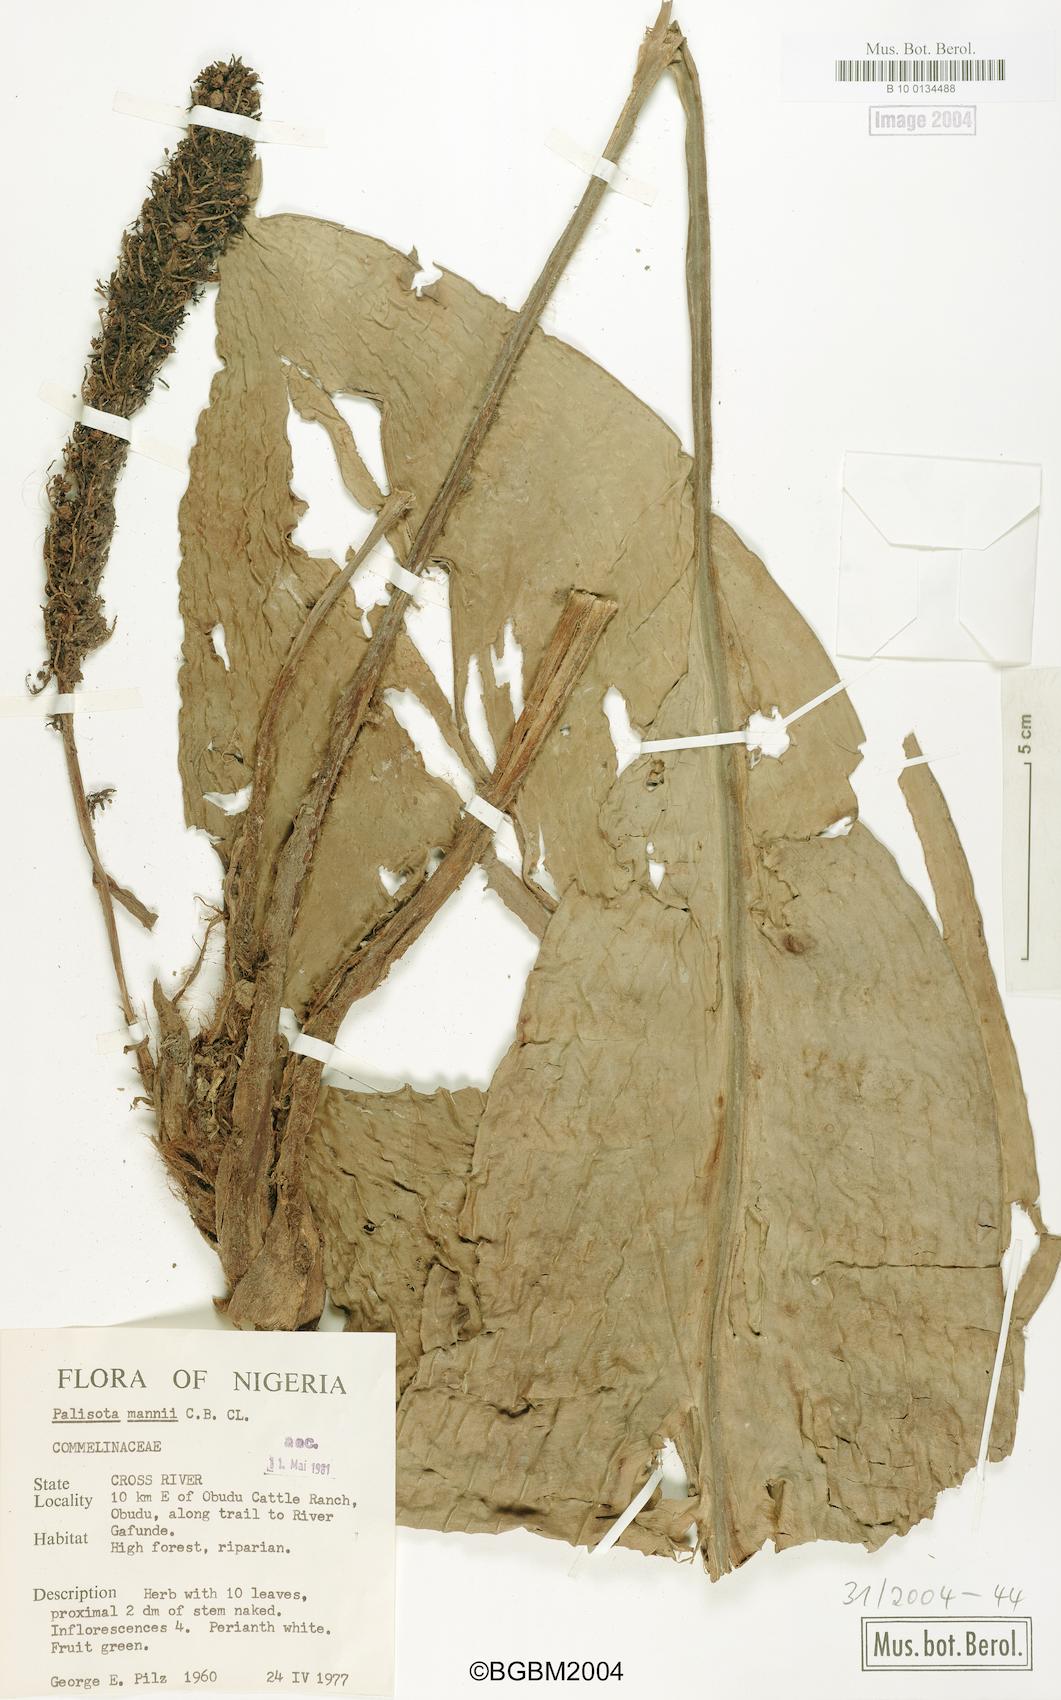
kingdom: Plantae
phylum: Tracheophyta
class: Liliopsida
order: Commelinales
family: Commelinaceae
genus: Palisota
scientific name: Palisota mannii
